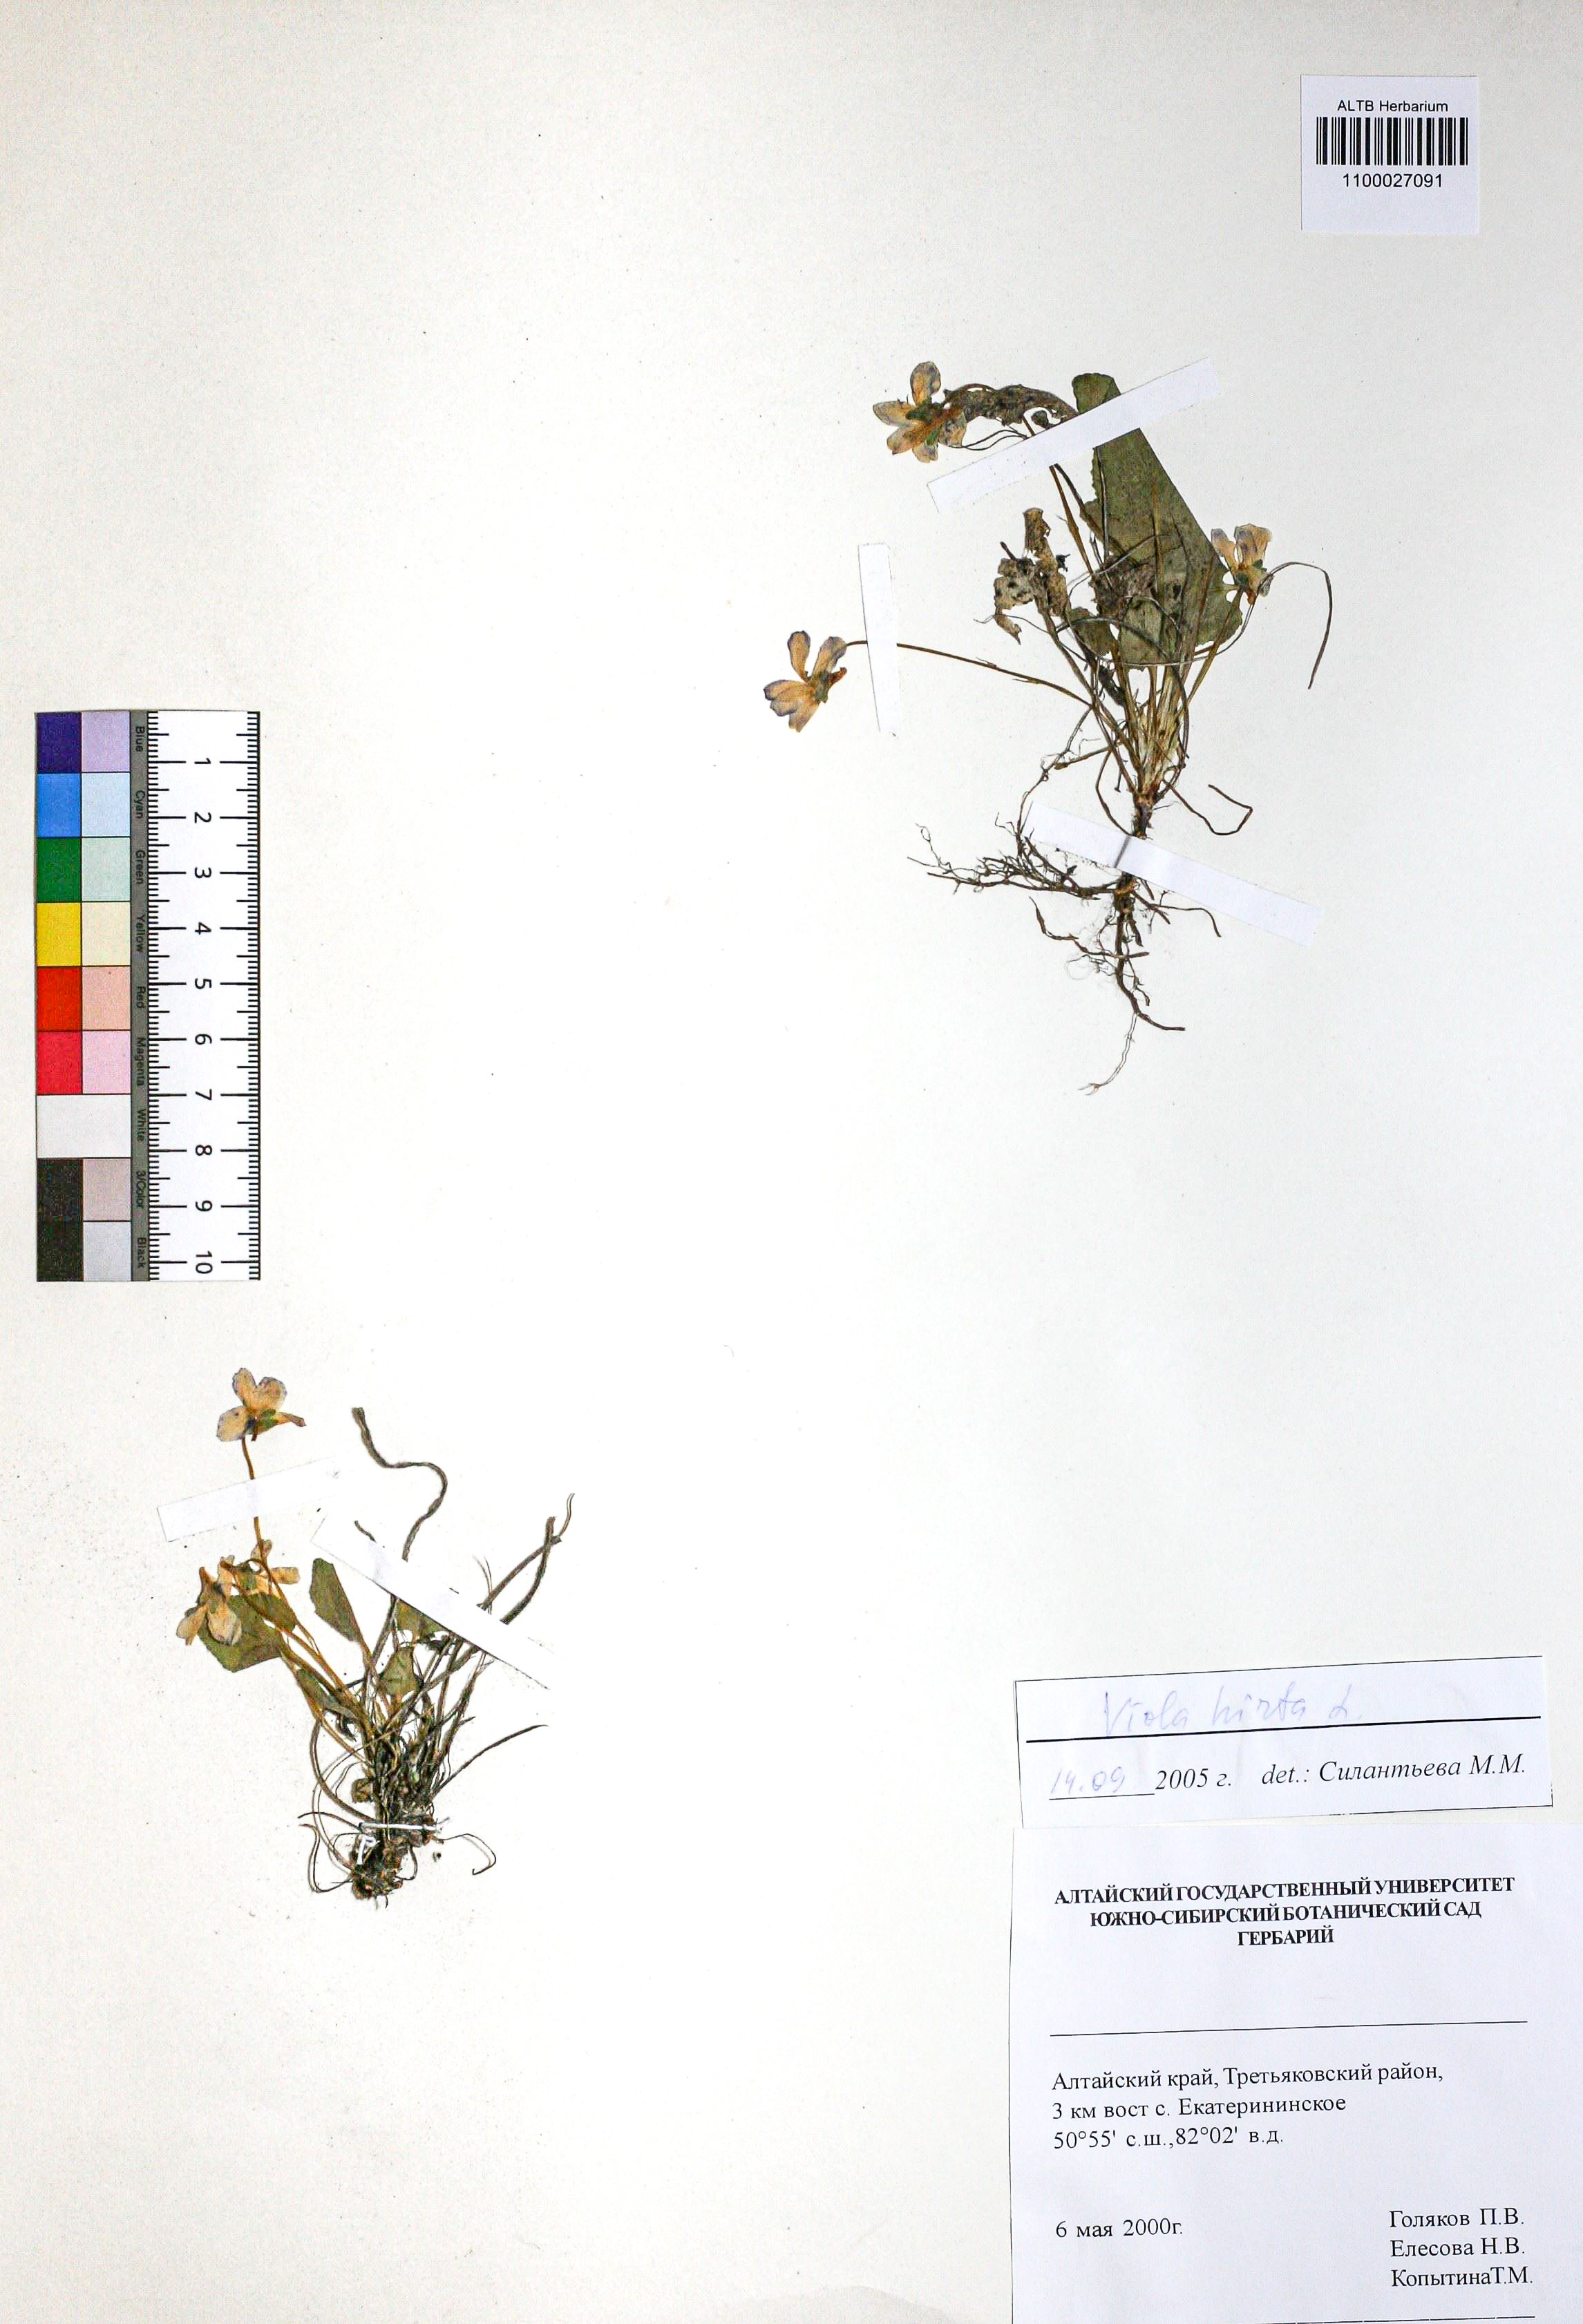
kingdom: Plantae
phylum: Tracheophyta
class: Magnoliopsida
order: Malpighiales
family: Violaceae
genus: Viola
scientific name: Viola hirta
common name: Hairy violet
